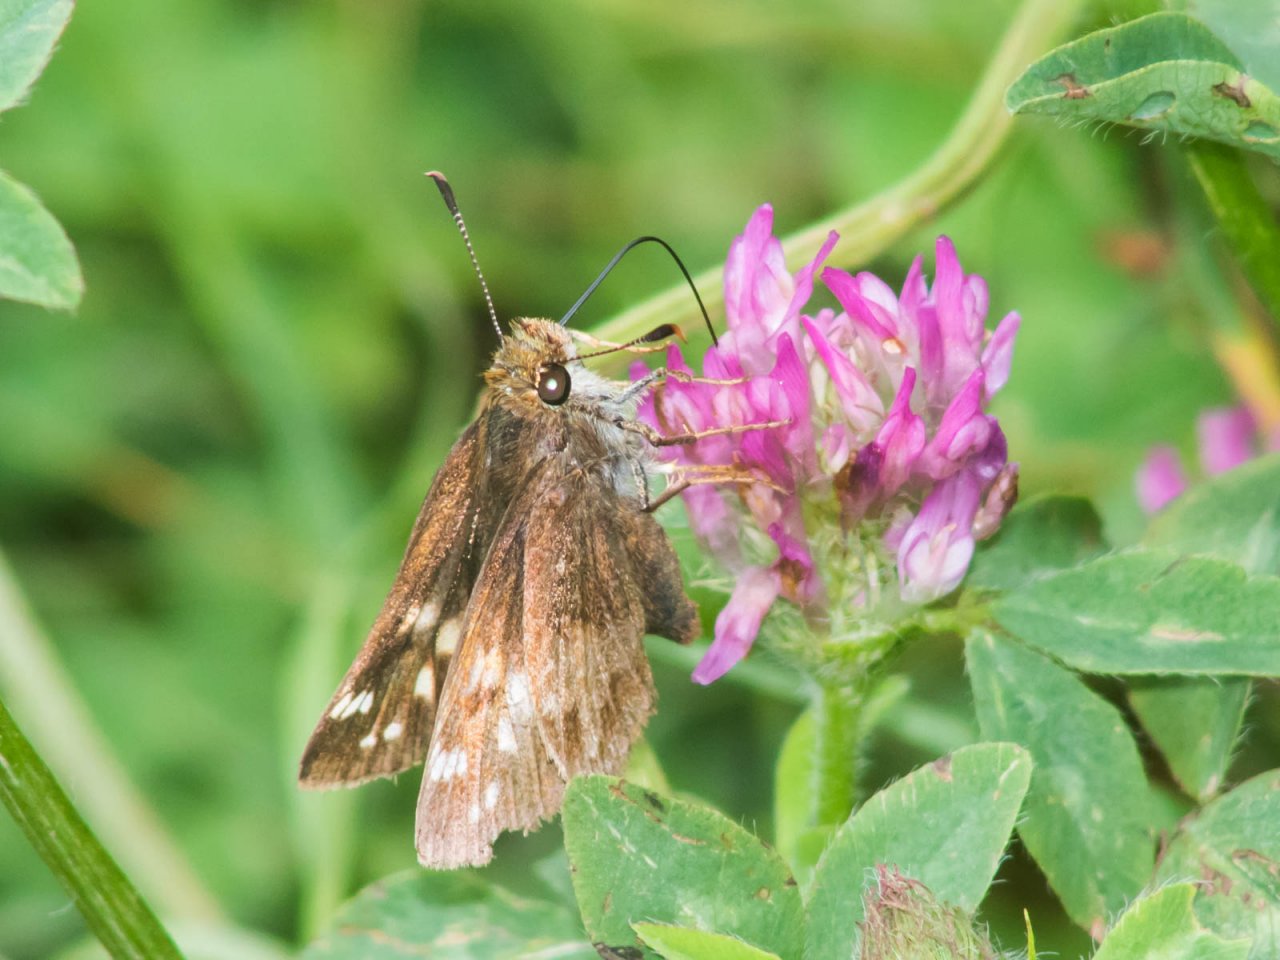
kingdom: Animalia
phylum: Arthropoda
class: Insecta
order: Lepidoptera
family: Hesperiidae
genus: Lon
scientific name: Lon hobomok
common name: Hobomok Skipper
